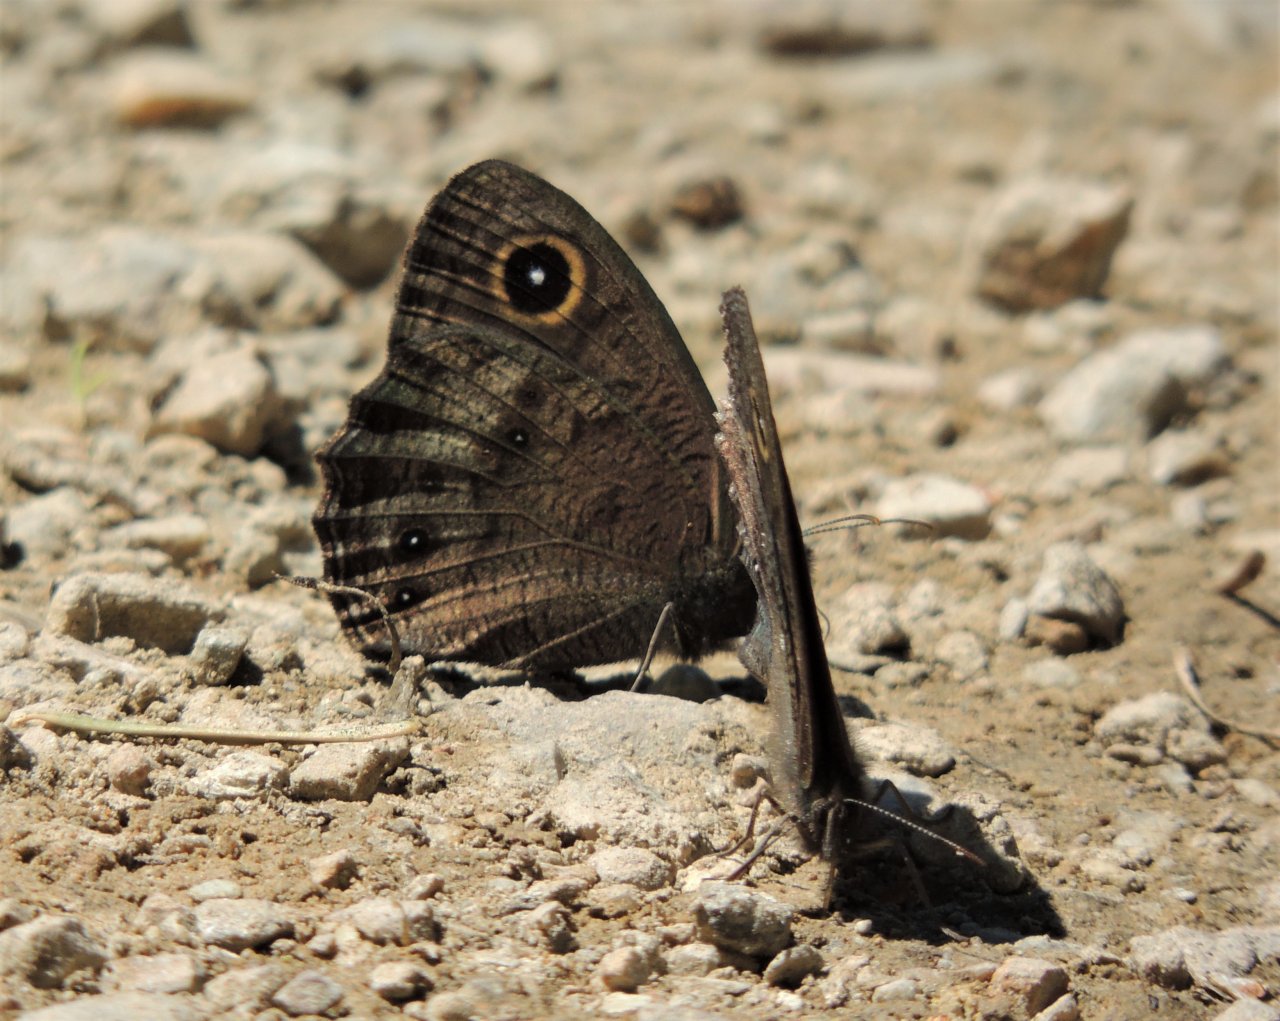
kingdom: Animalia
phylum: Arthropoda
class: Insecta
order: Lepidoptera
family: Nymphalidae
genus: Cercyonis
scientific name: Cercyonis sthenele
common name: Great Basin Wood-Nymph
